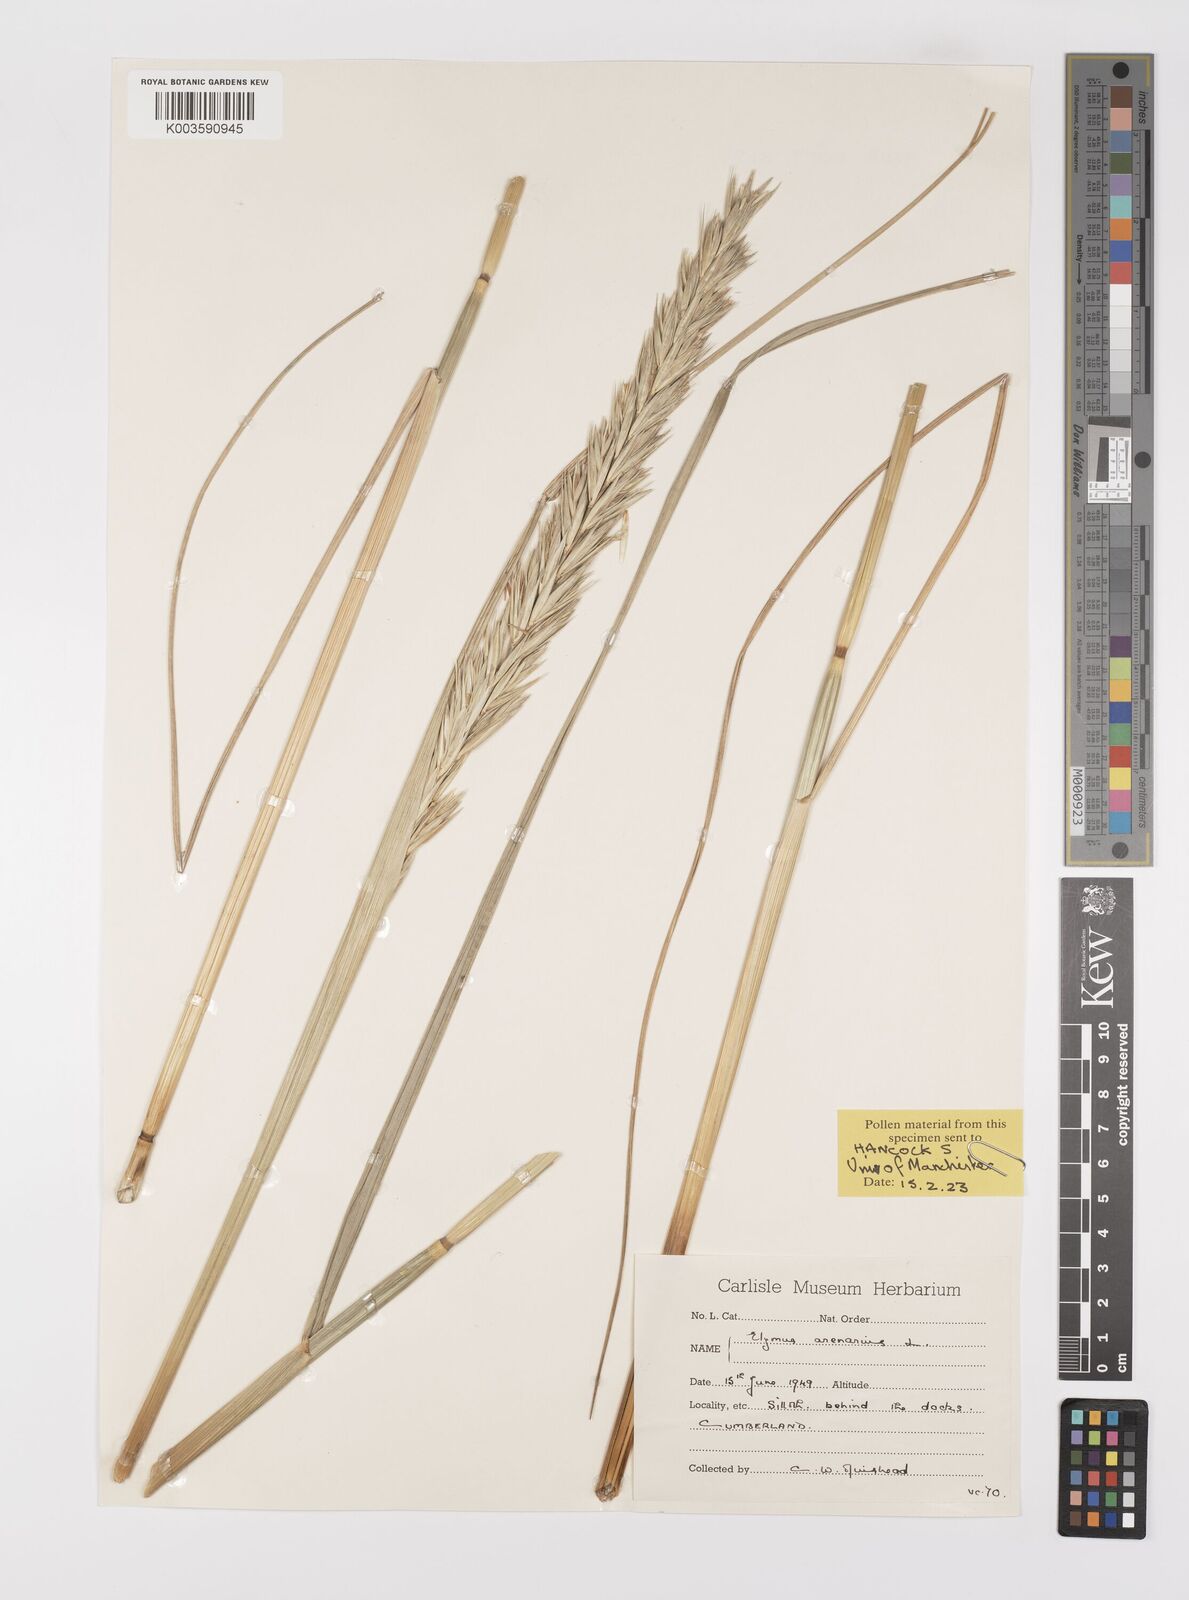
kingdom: Plantae
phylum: Tracheophyta
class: Liliopsida
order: Poales
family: Poaceae
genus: Leymus
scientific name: Leymus arenarius
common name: Lyme-grass
